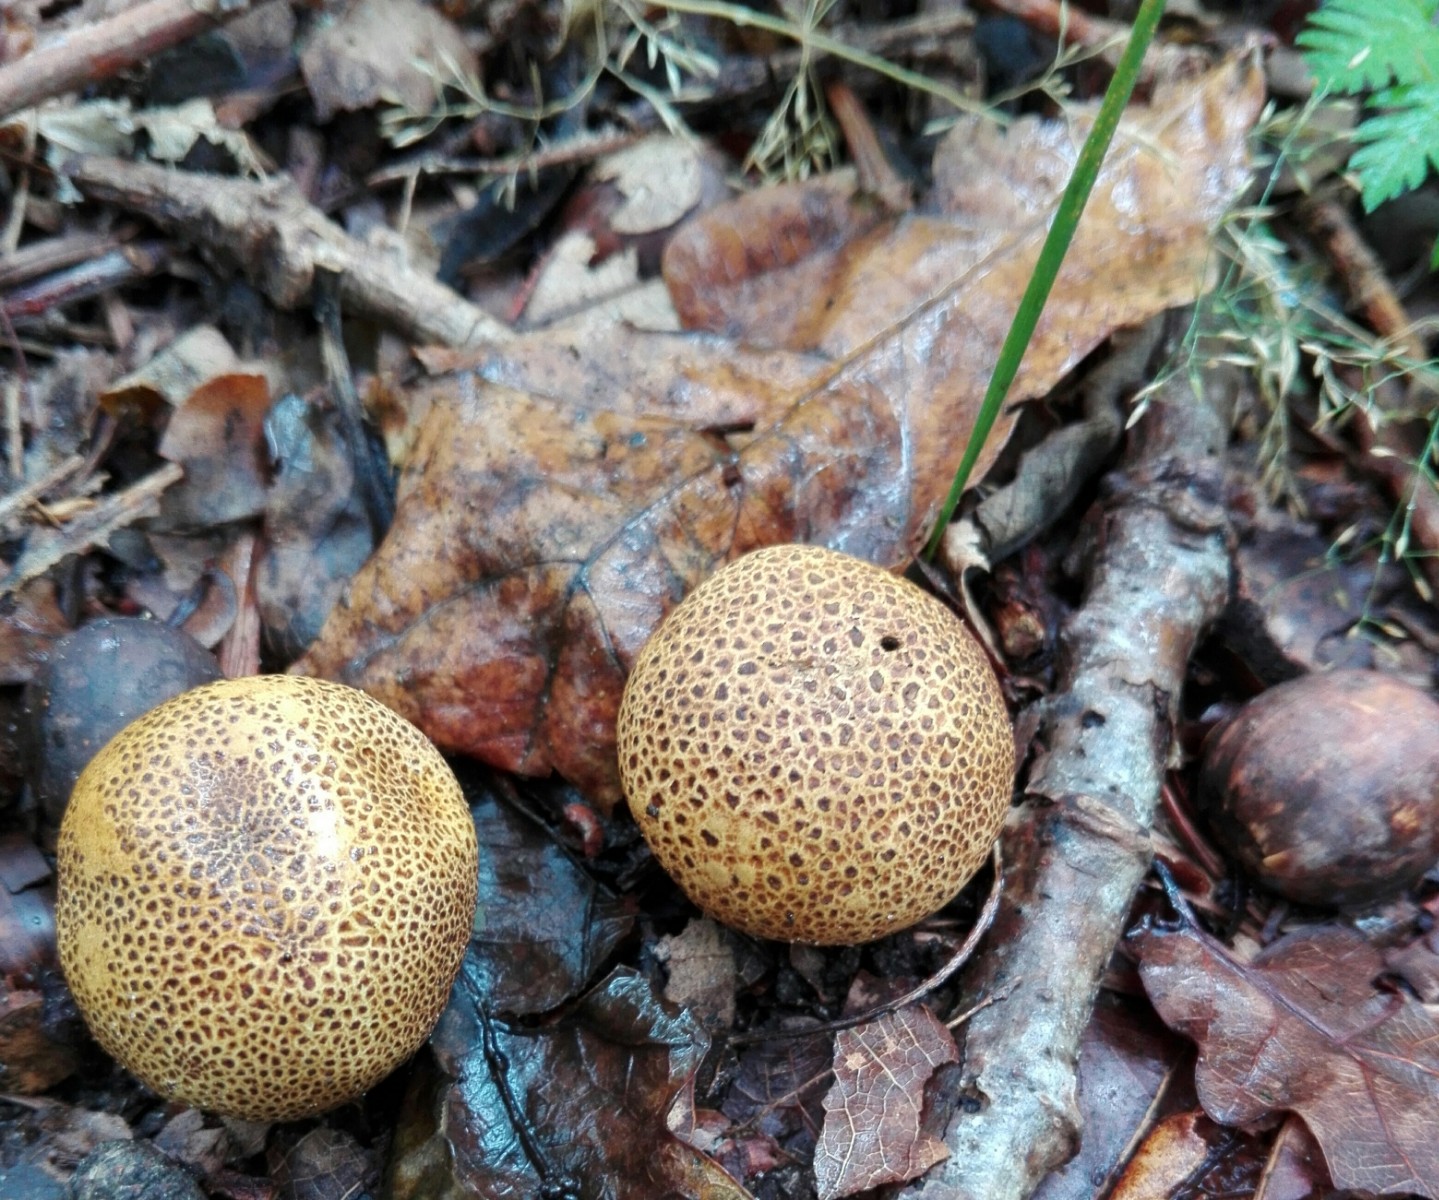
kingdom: Fungi
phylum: Basidiomycota
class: Agaricomycetes
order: Boletales
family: Sclerodermataceae
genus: Scleroderma
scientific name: Scleroderma areolatum
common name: plettet bruskbold
